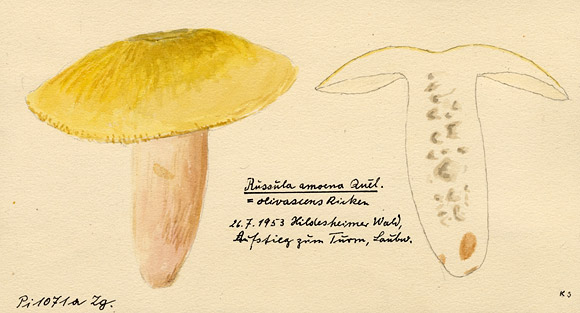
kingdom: Fungi
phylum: Basidiomycota
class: Agaricomycetes
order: Russulales
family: Russulaceae
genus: Russula
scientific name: Russula violeipes
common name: Velvet brittlegill
